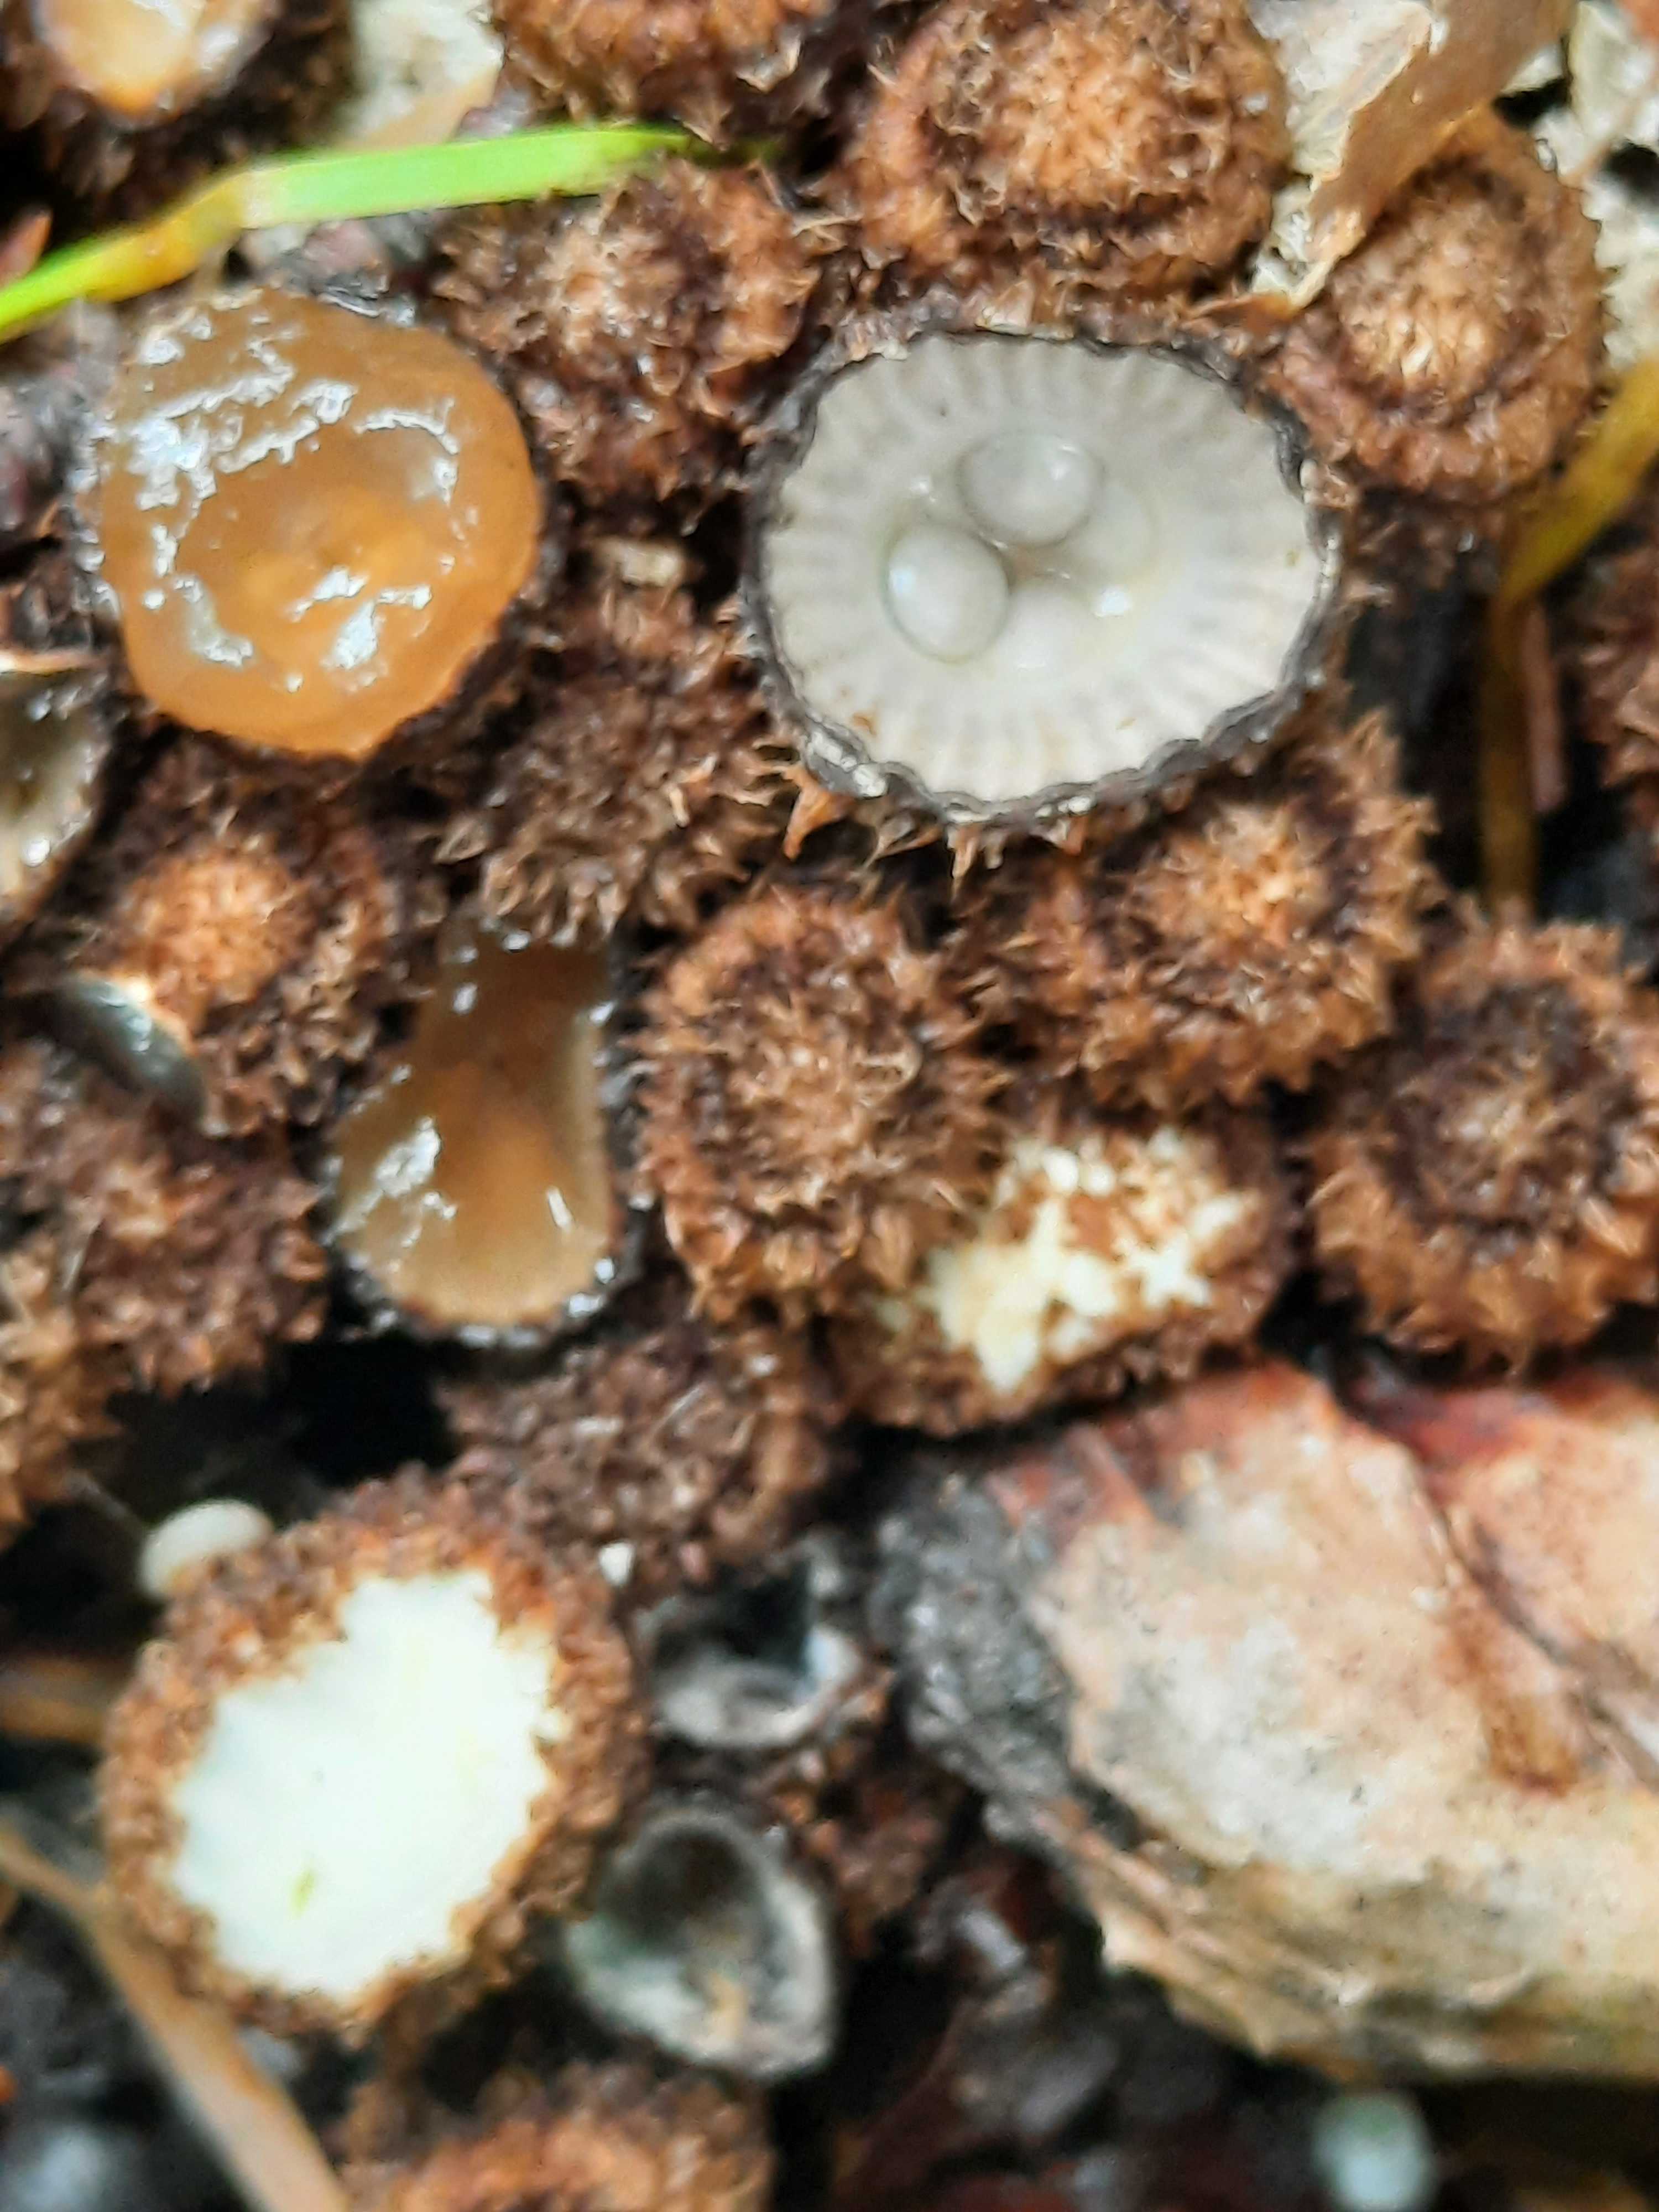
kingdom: Fungi
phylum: Basidiomycota
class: Agaricomycetes
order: Agaricales
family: Agaricaceae
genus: Cyathus
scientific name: Cyathus striatus
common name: stribet redesvamp
